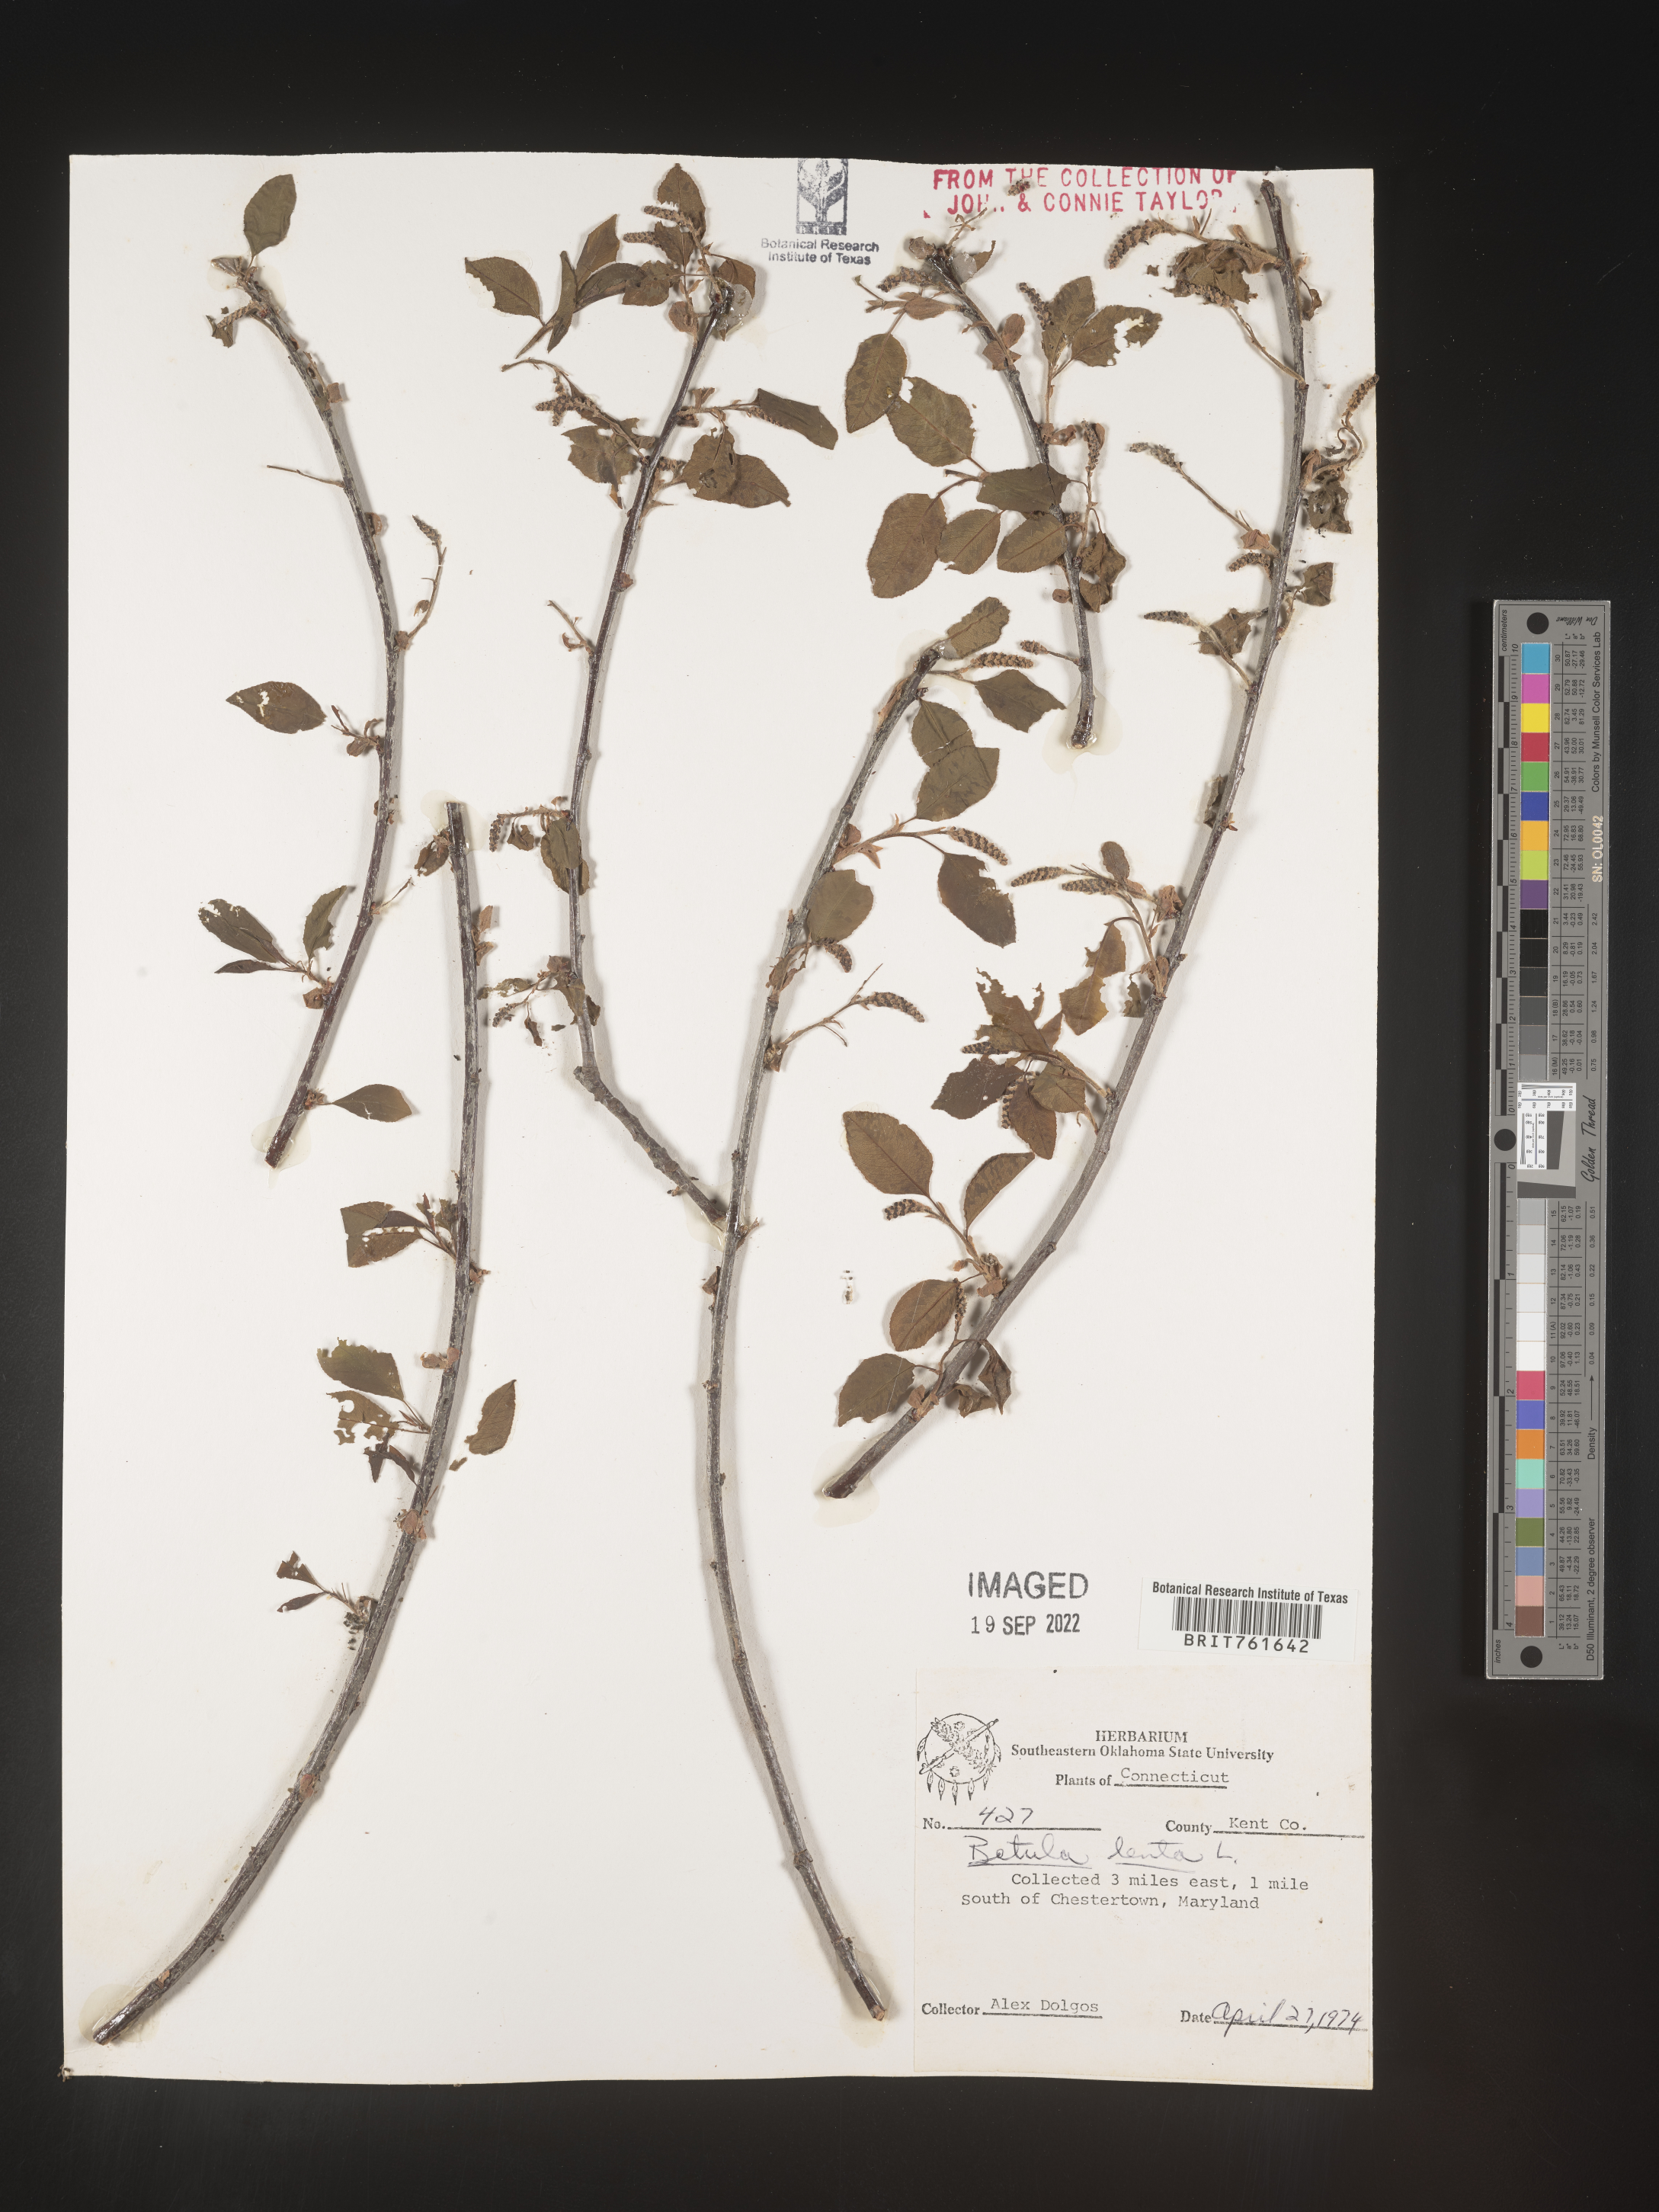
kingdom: Plantae
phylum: Tracheophyta
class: Magnoliopsida
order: Fagales
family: Betulaceae
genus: Betula
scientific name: Betula lenta
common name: Black birch
